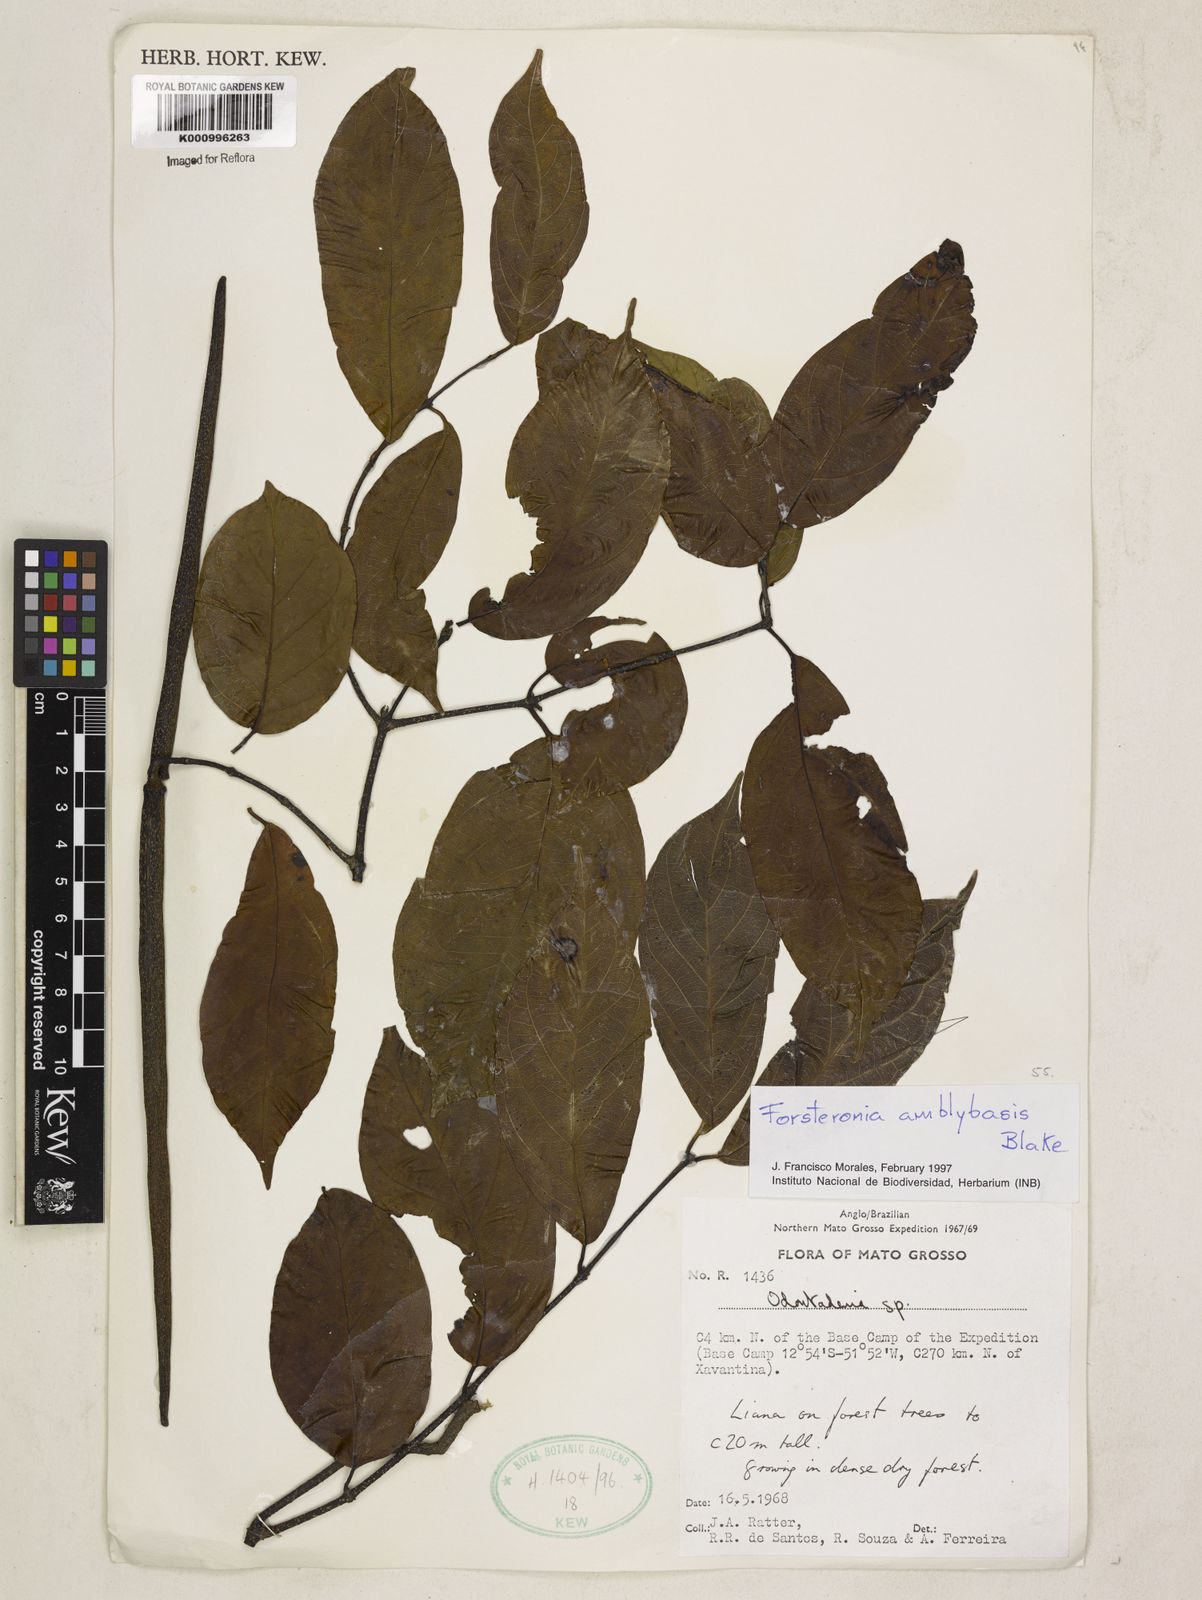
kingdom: Plantae
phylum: Tracheophyta
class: Magnoliopsida
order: Gentianales
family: Apocynaceae
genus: Forsteronia
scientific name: Forsteronia amblybasis
